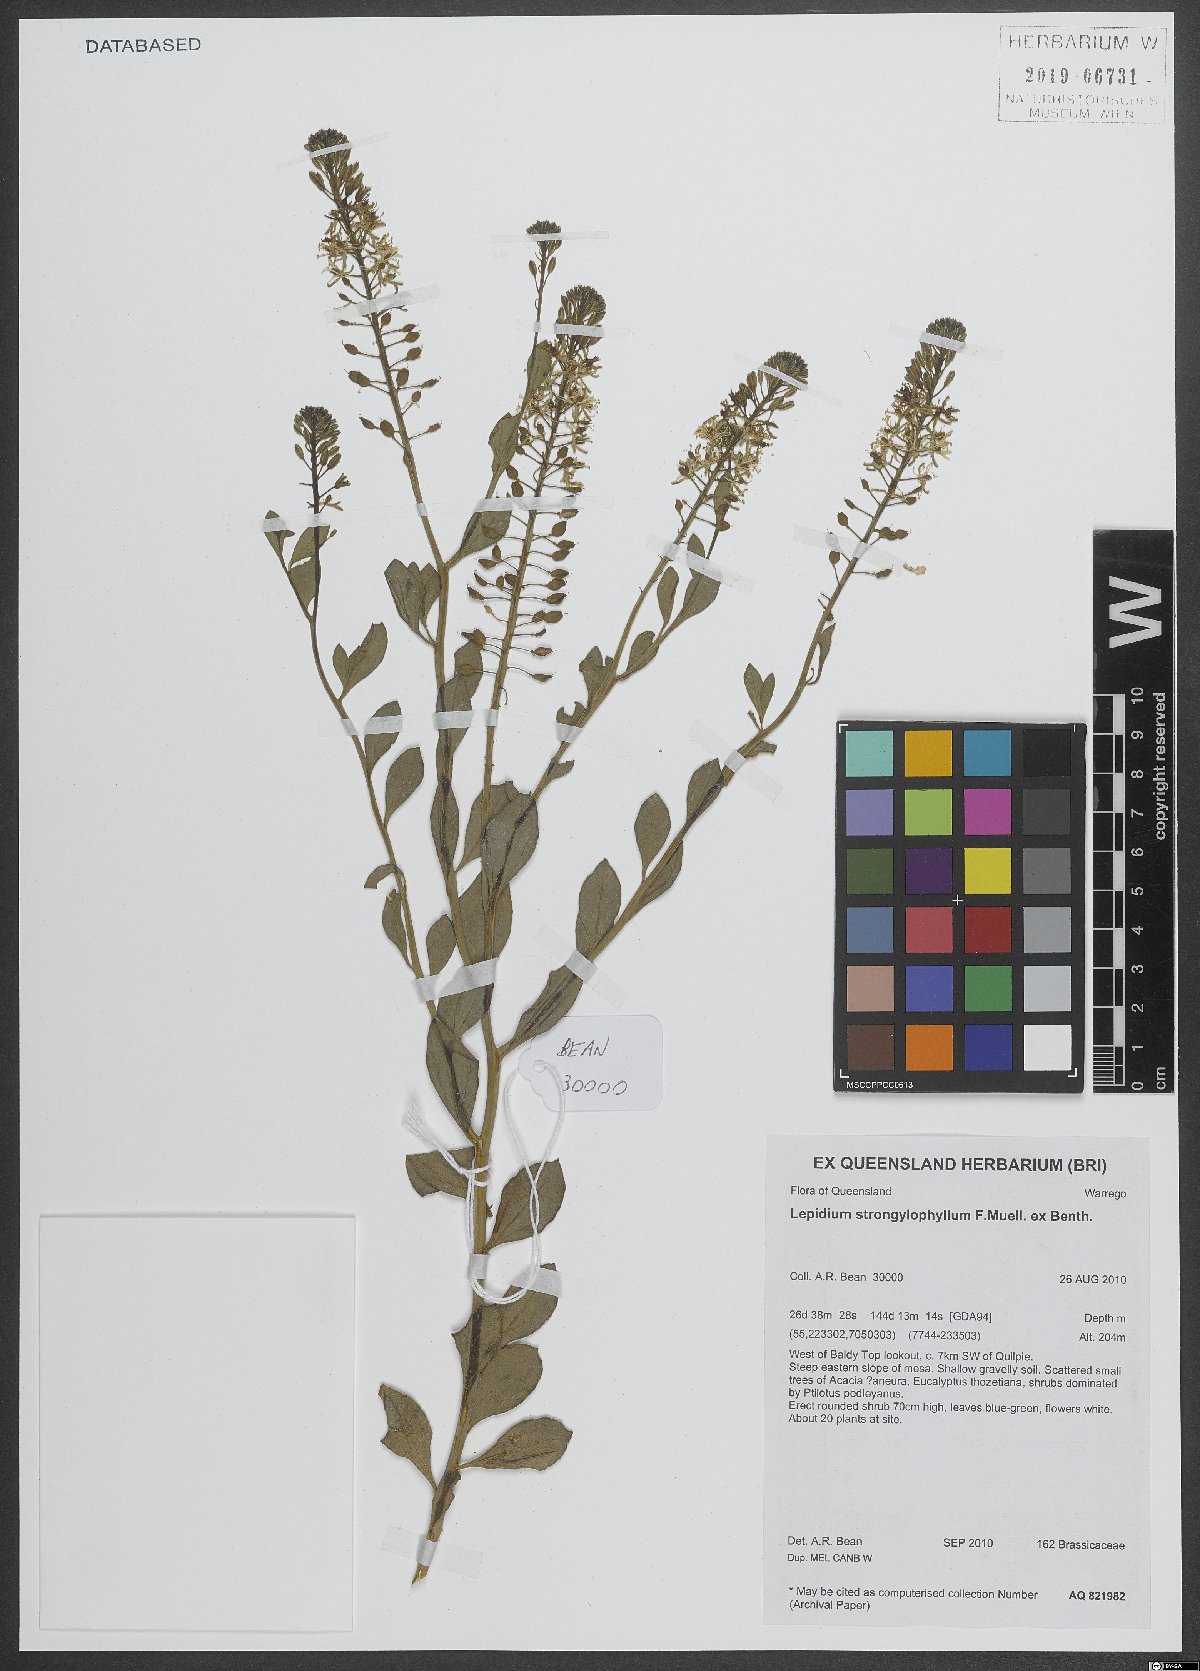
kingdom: Plantae
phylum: Tracheophyta
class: Magnoliopsida
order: Brassicales
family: Brassicaceae
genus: Lepidium
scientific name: Lepidium strongylophyllum
